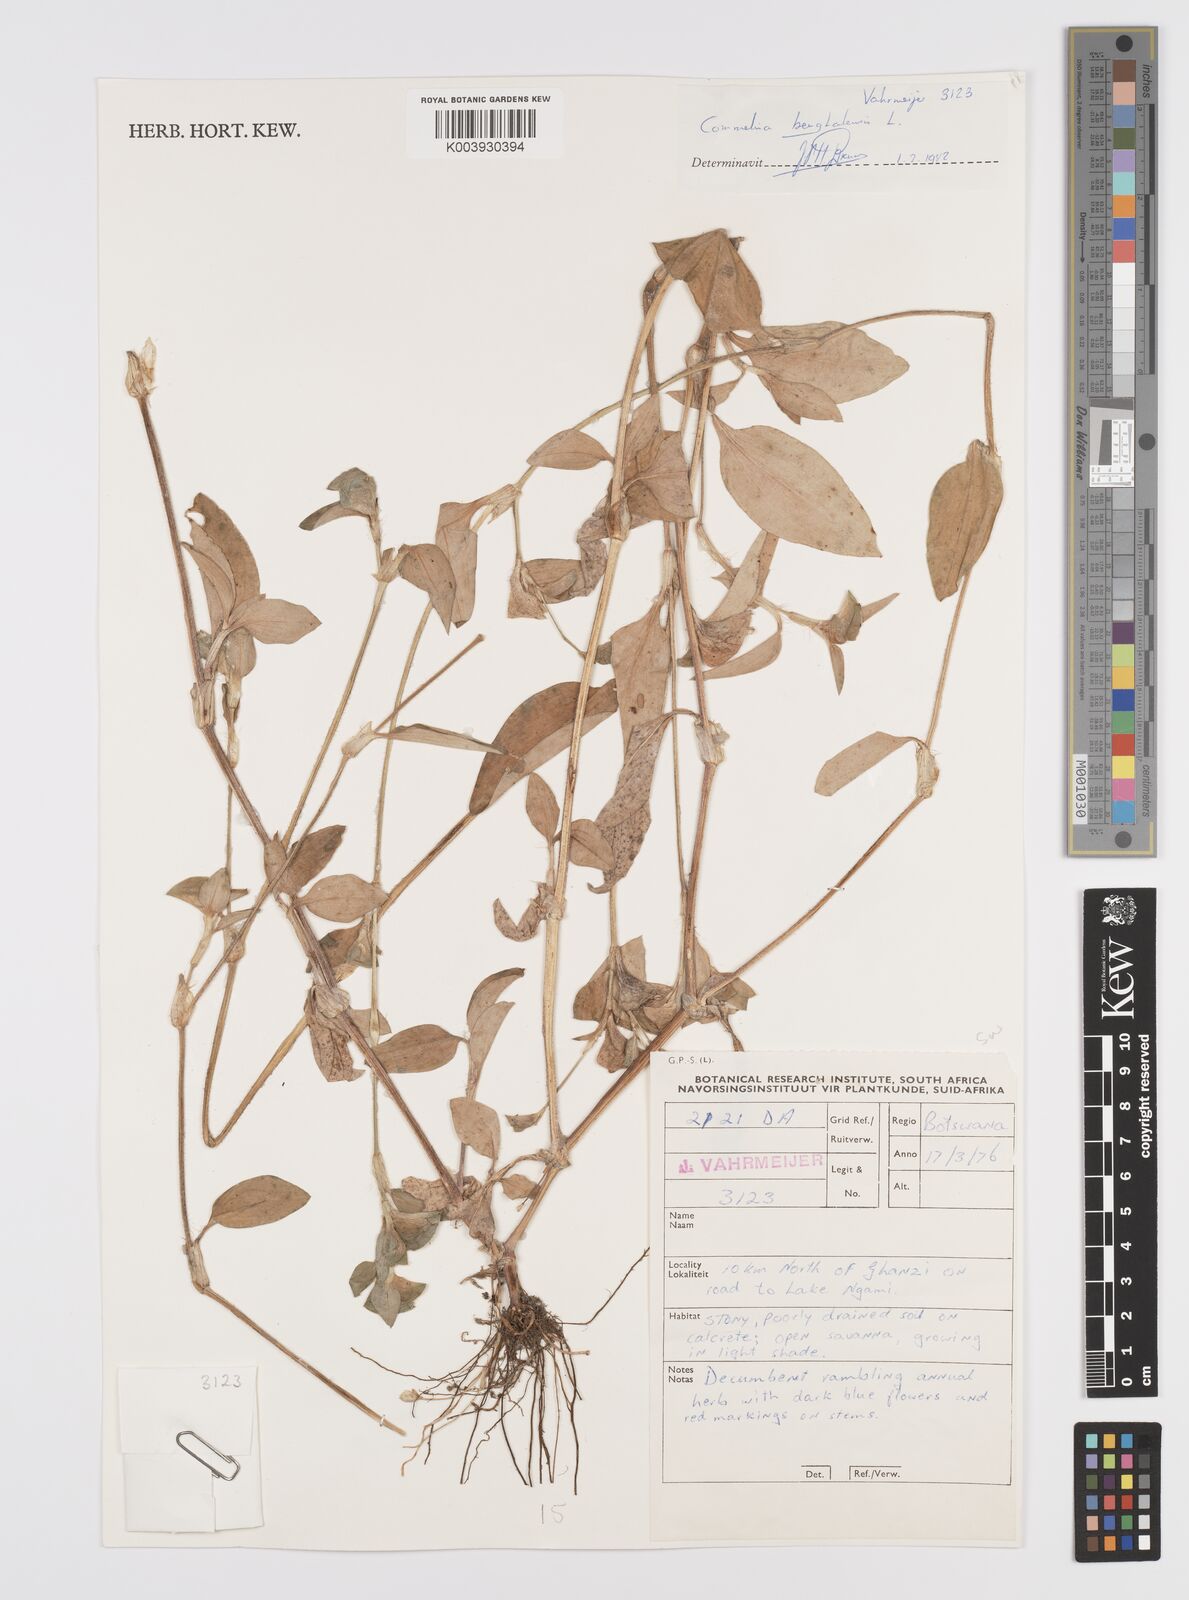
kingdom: Plantae
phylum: Tracheophyta
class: Liliopsida
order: Commelinales
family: Commelinaceae
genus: Commelina
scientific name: Commelina benghalensis
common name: Jio
